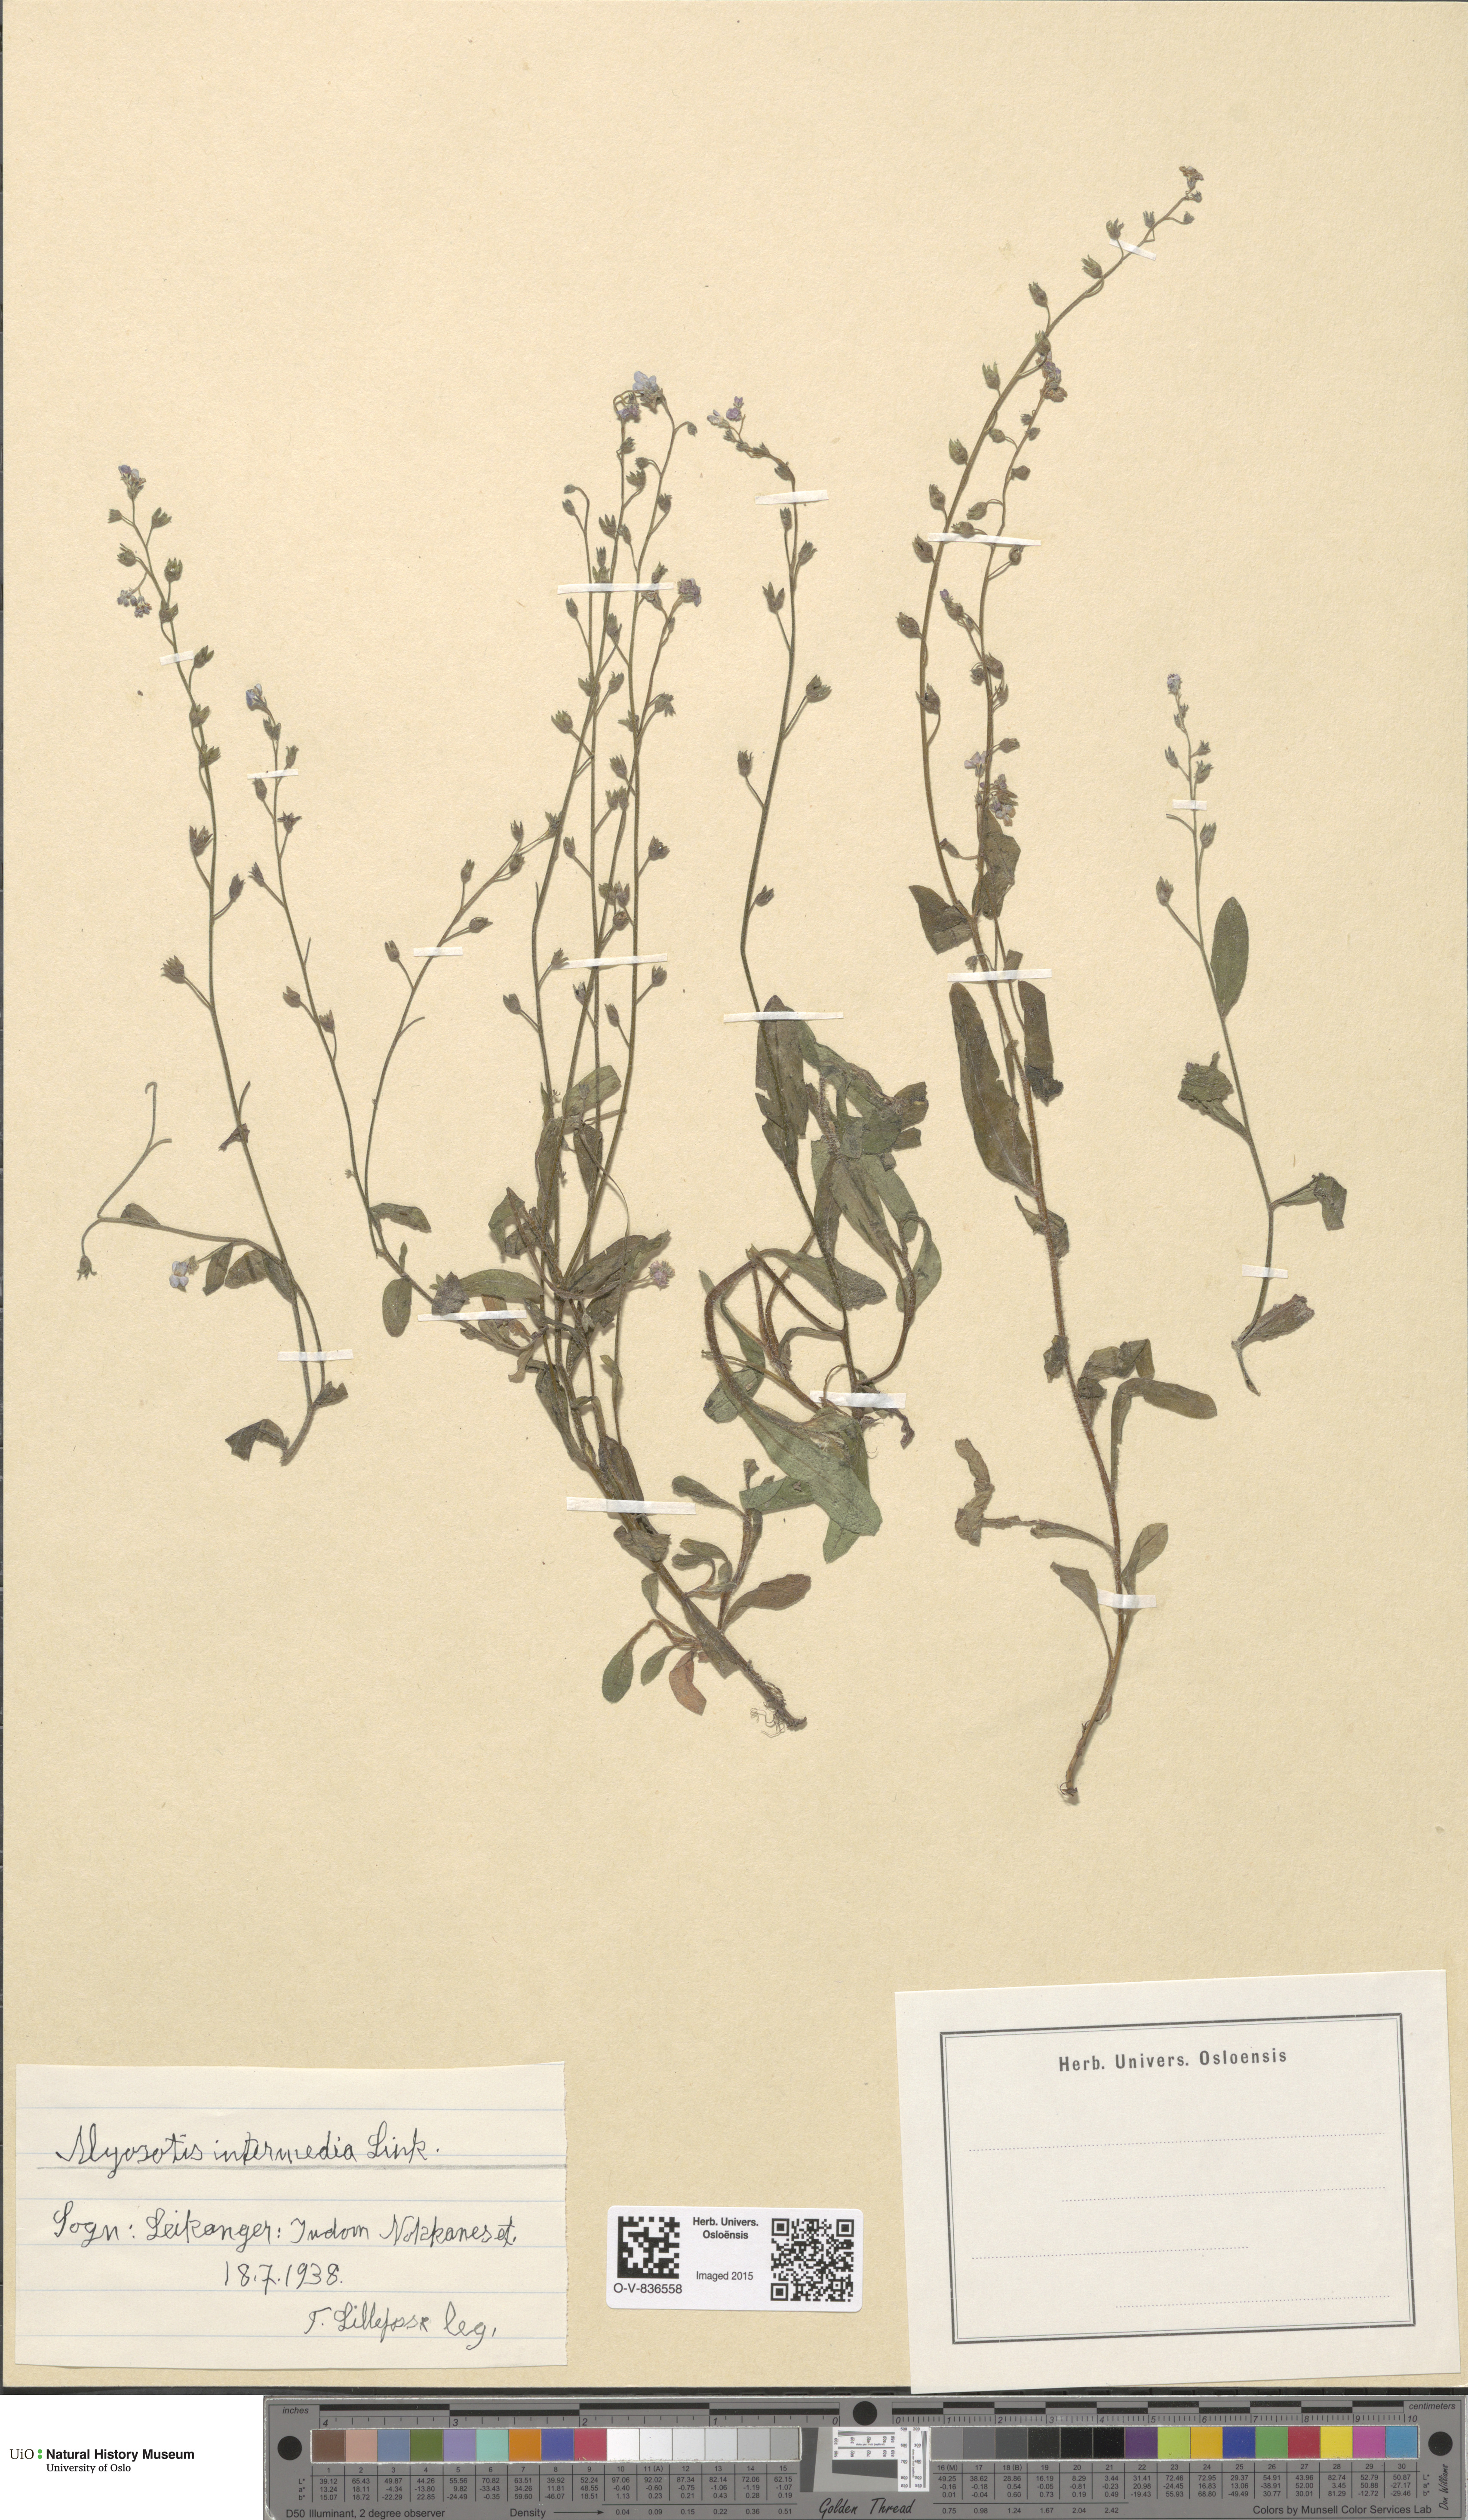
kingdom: Plantae
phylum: Tracheophyta
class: Magnoliopsida
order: Boraginales
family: Boraginaceae
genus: Myosotis
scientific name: Myosotis arvensis
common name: Field forget-me-not
